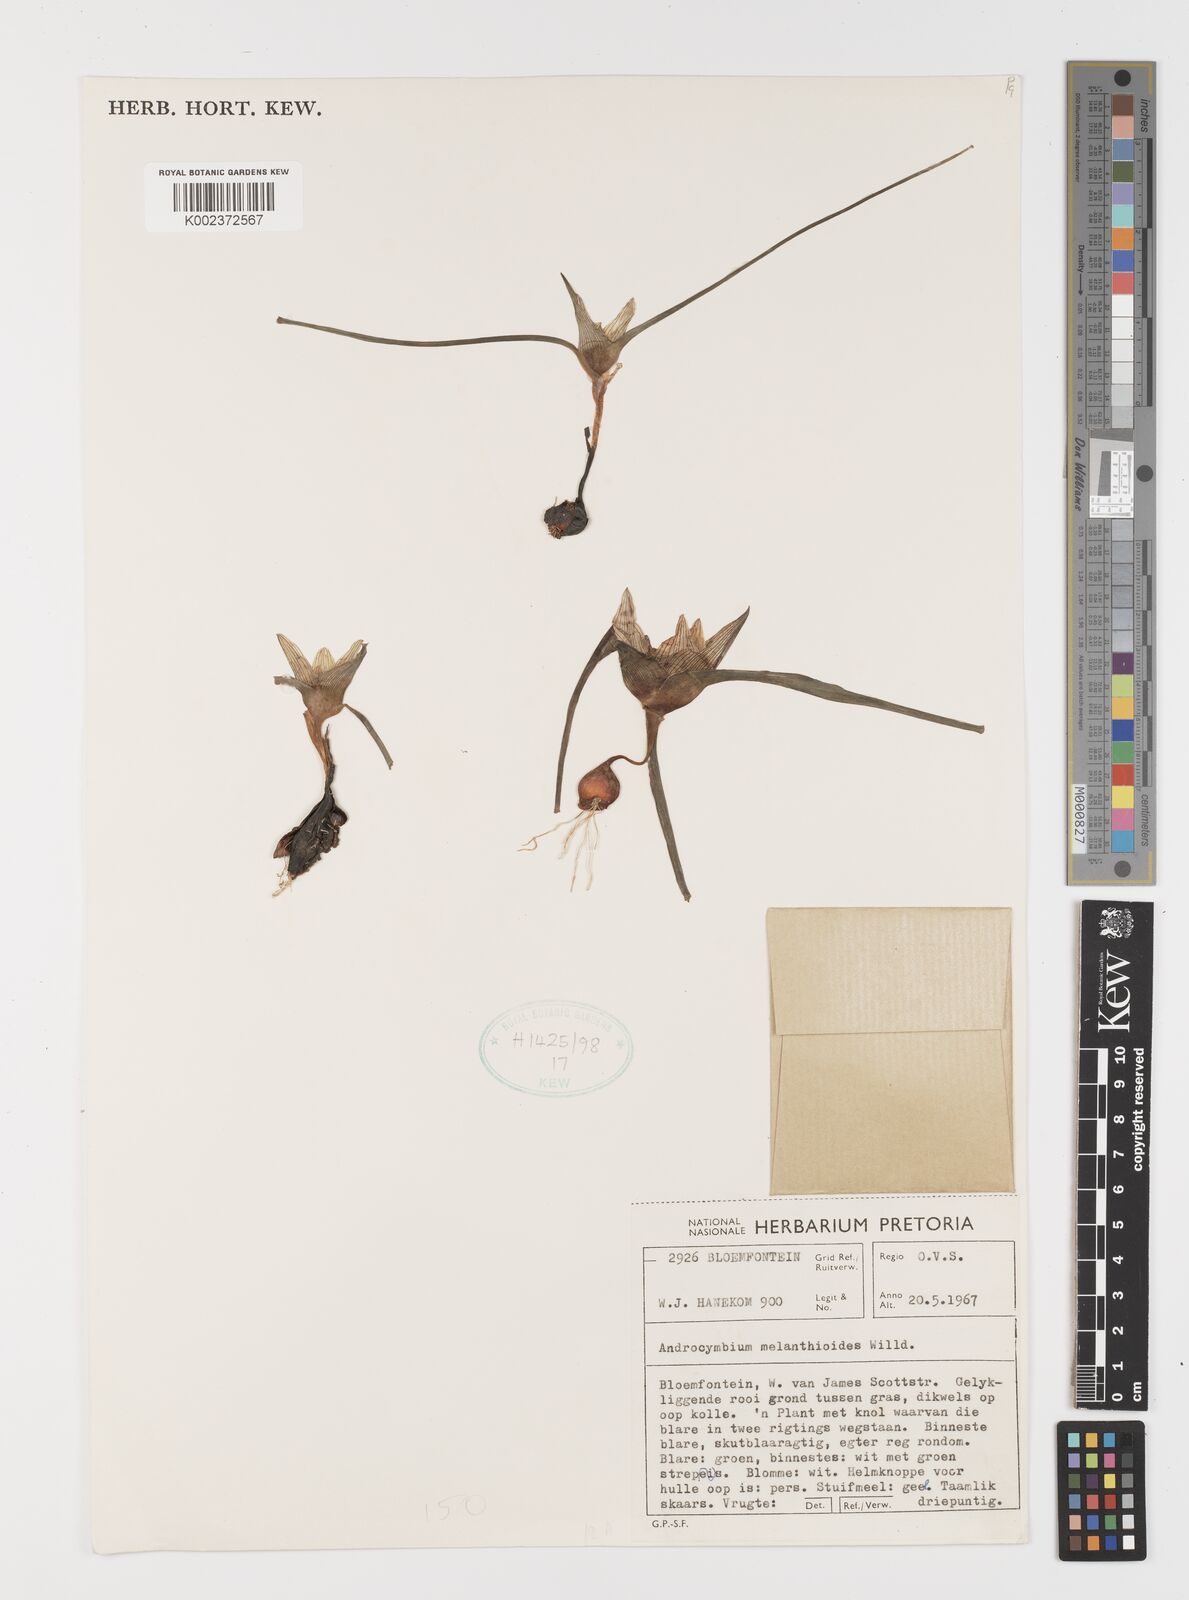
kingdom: Plantae
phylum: Tracheophyta
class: Liliopsida
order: Liliales
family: Colchicaceae
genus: Colchicum
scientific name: Colchicum melanthioides
